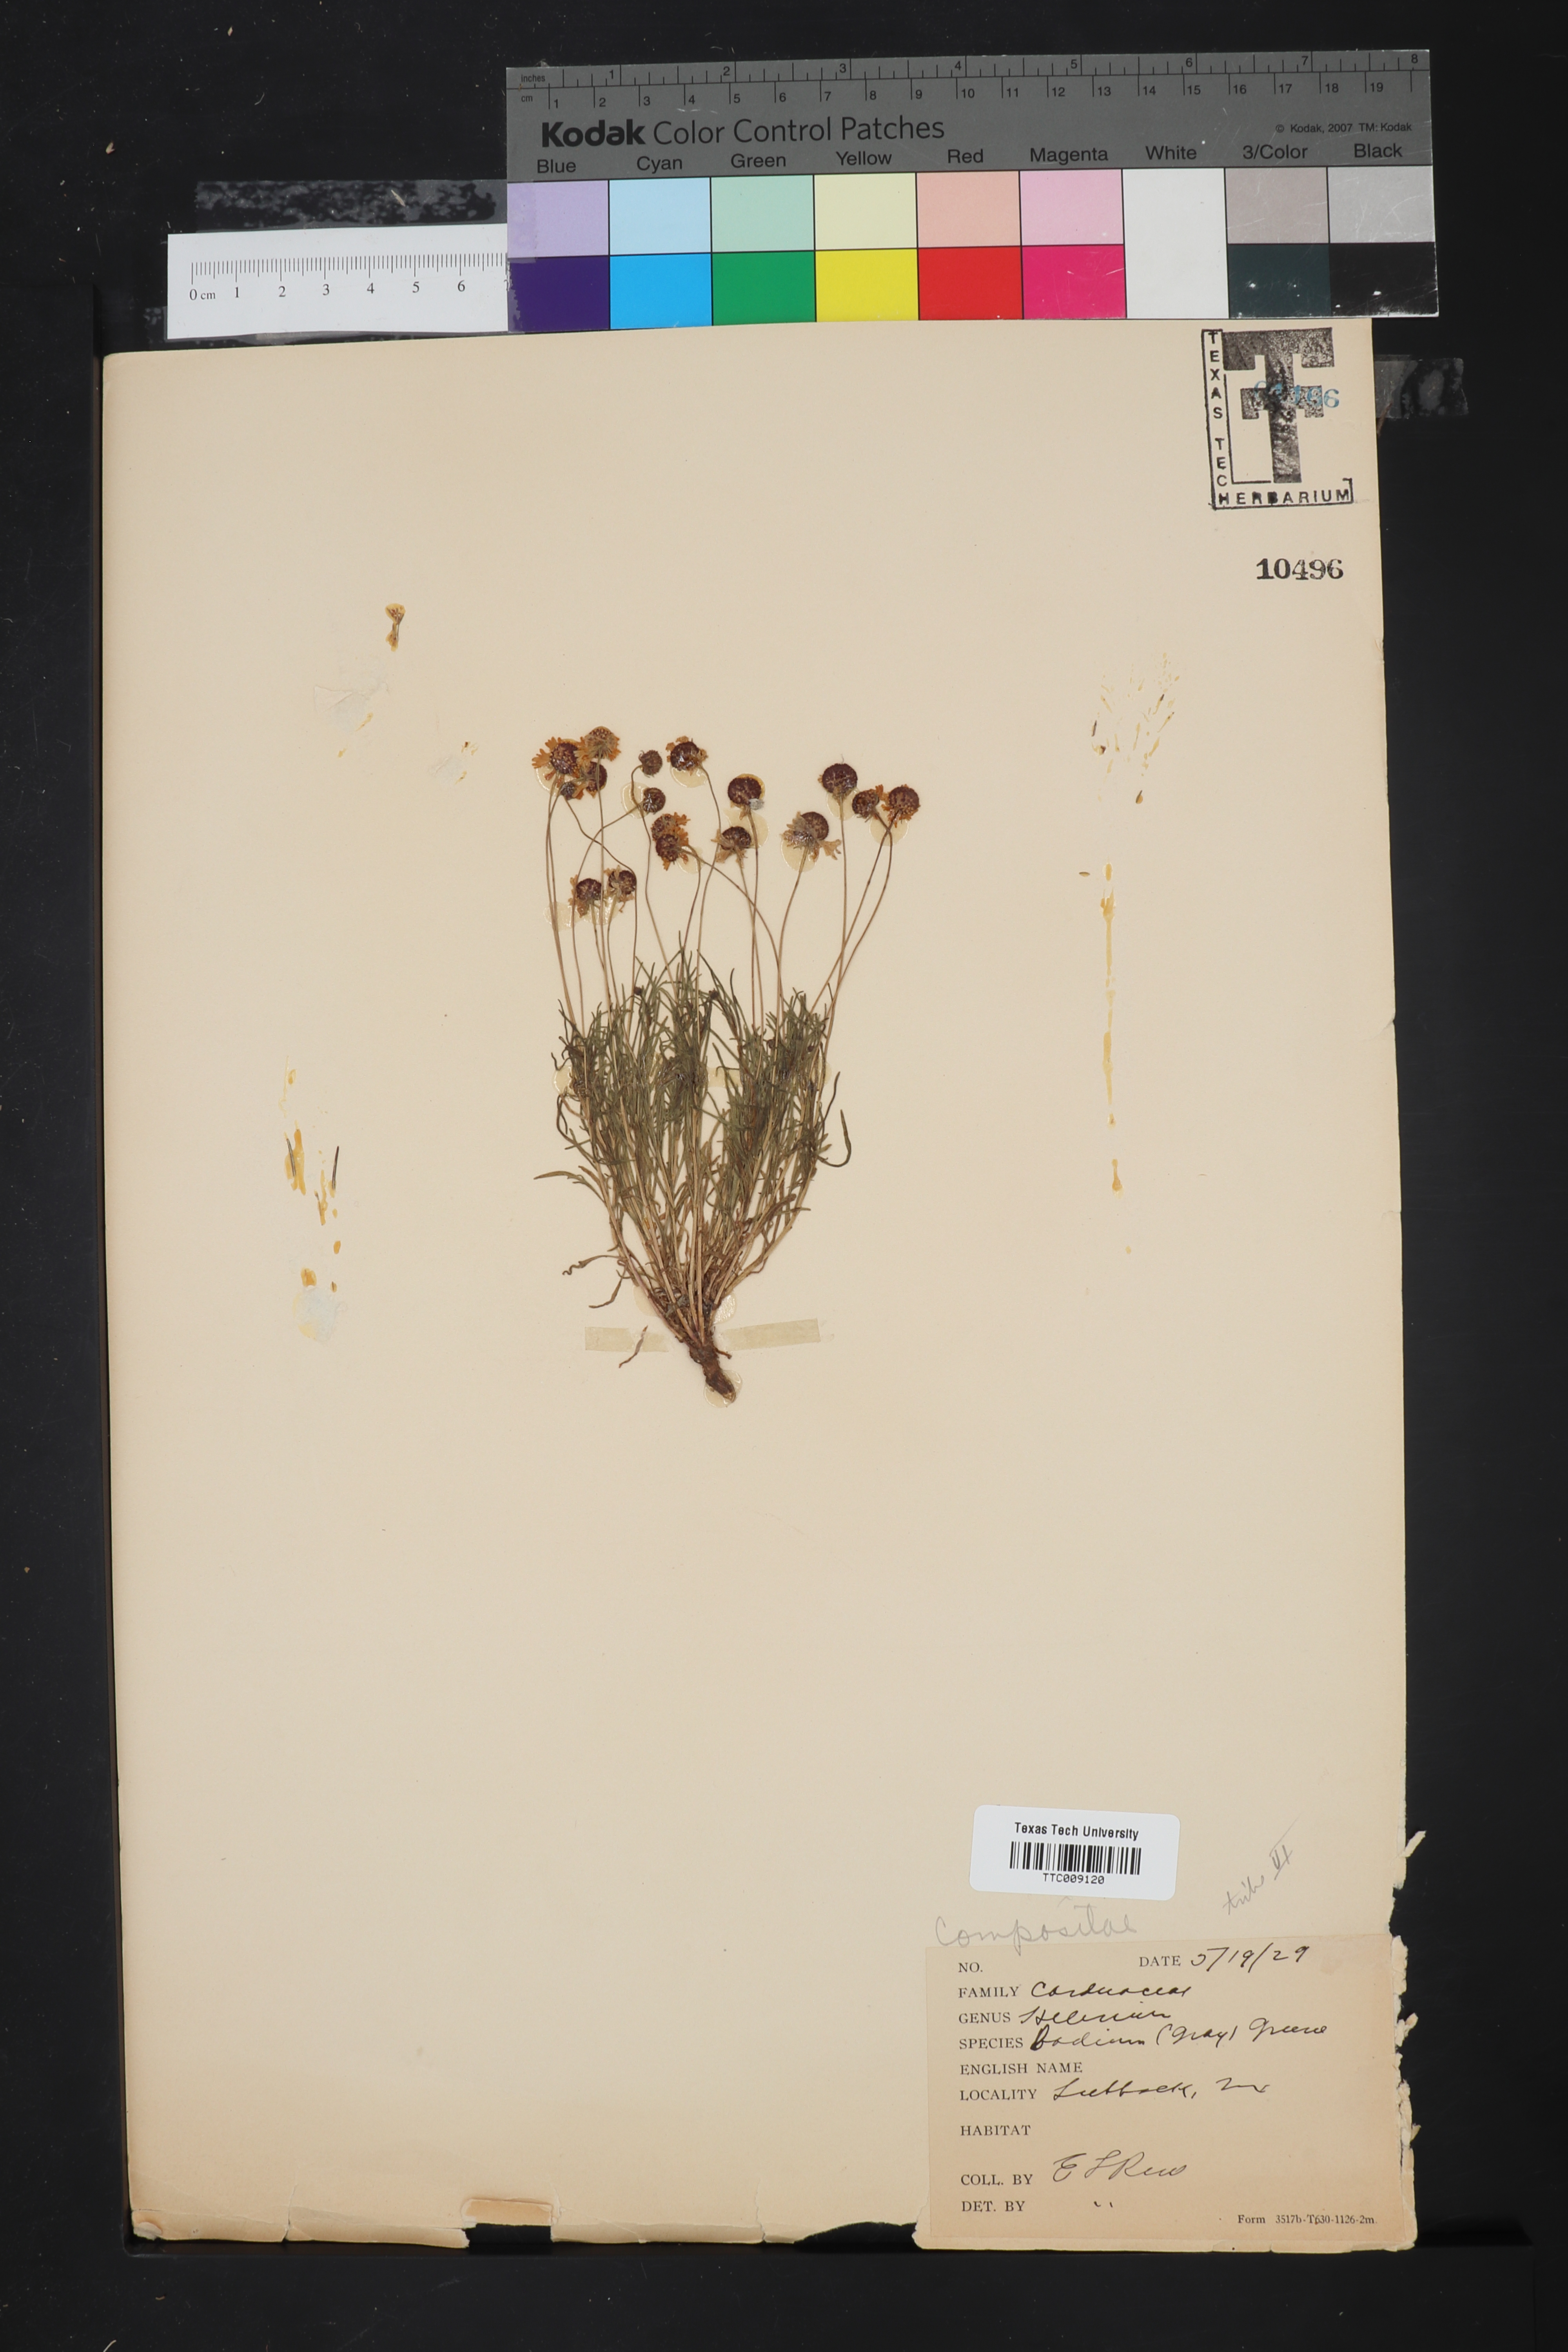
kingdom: Plantae
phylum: Tracheophyta
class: Magnoliopsida
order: Asterales
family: Asteraceae
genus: Helenium
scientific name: Helenium amarum
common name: Bitter sneezeweed
